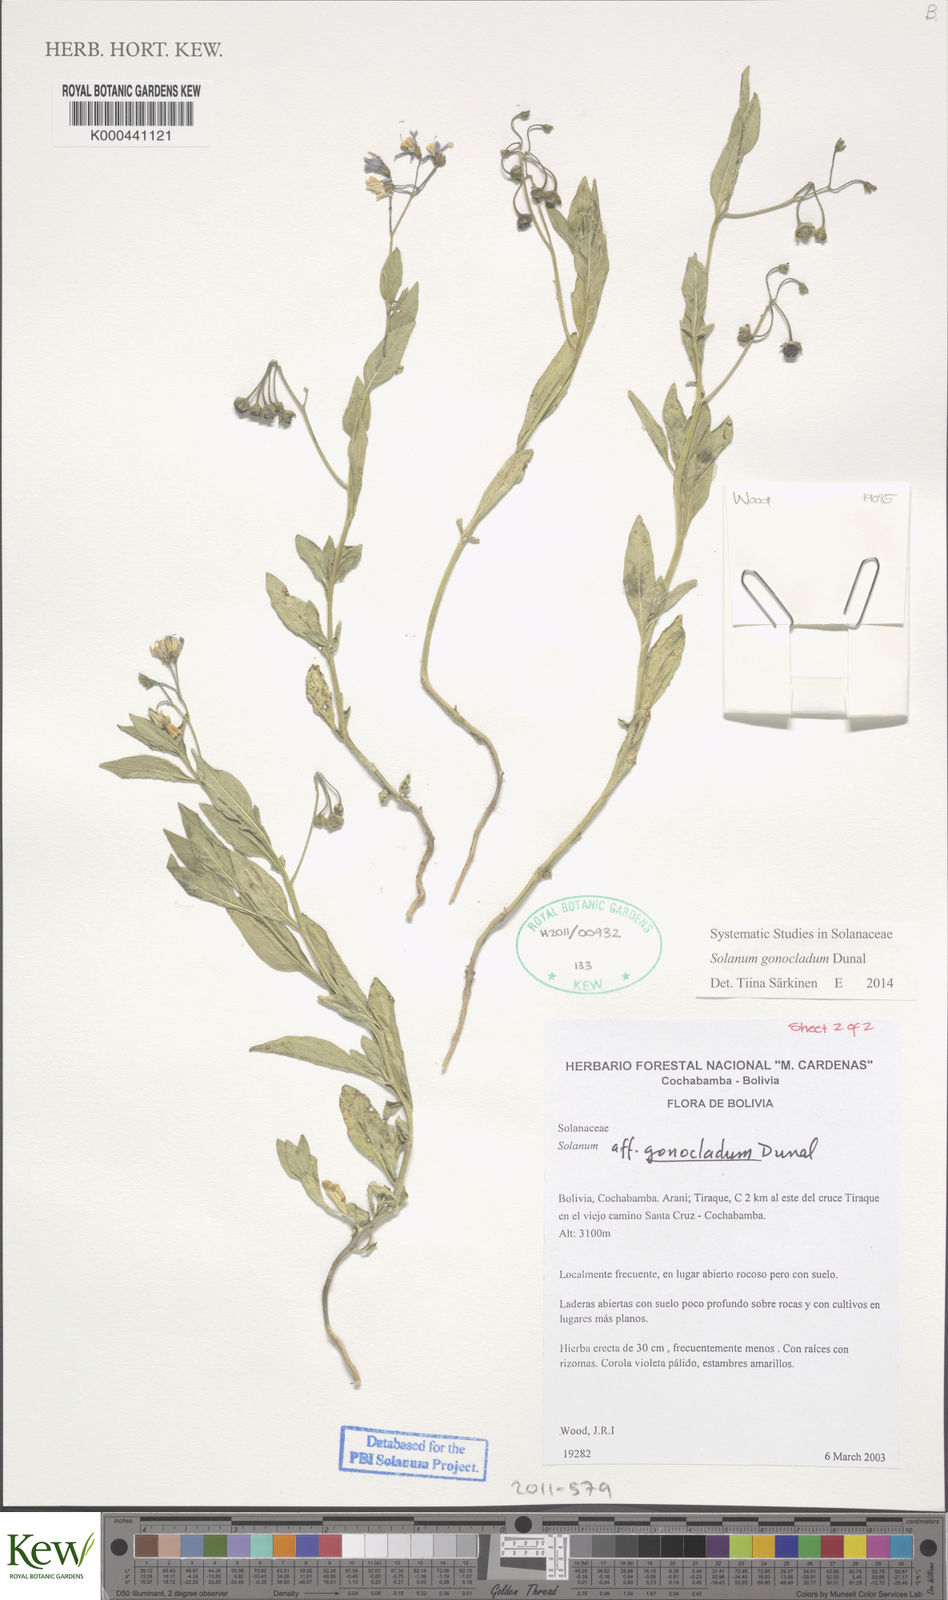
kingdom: Plantae
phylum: Tracheophyta
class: Magnoliopsida
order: Solanales
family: Solanaceae
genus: Solanum
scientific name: Solanum gonocladum
